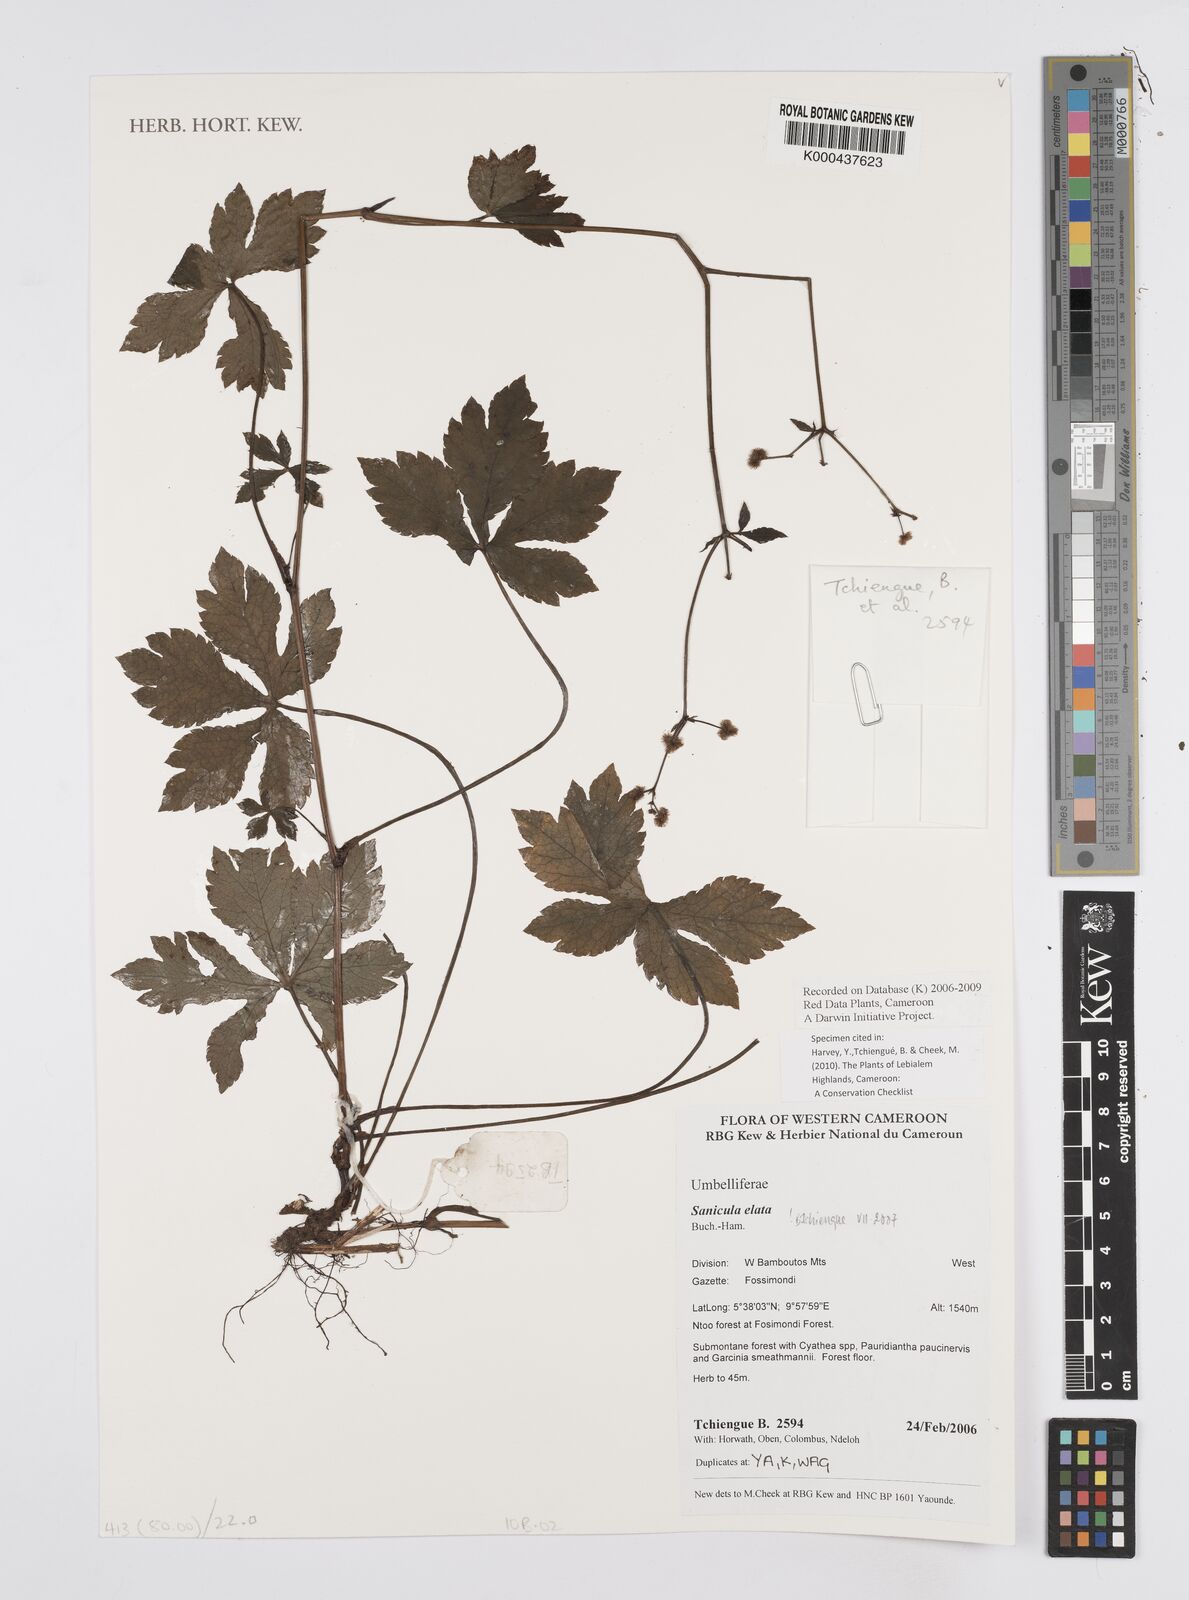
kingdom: Plantae
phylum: Tracheophyta
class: Magnoliopsida
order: Apiales
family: Apiaceae
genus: Sanicula
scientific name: Sanicula
